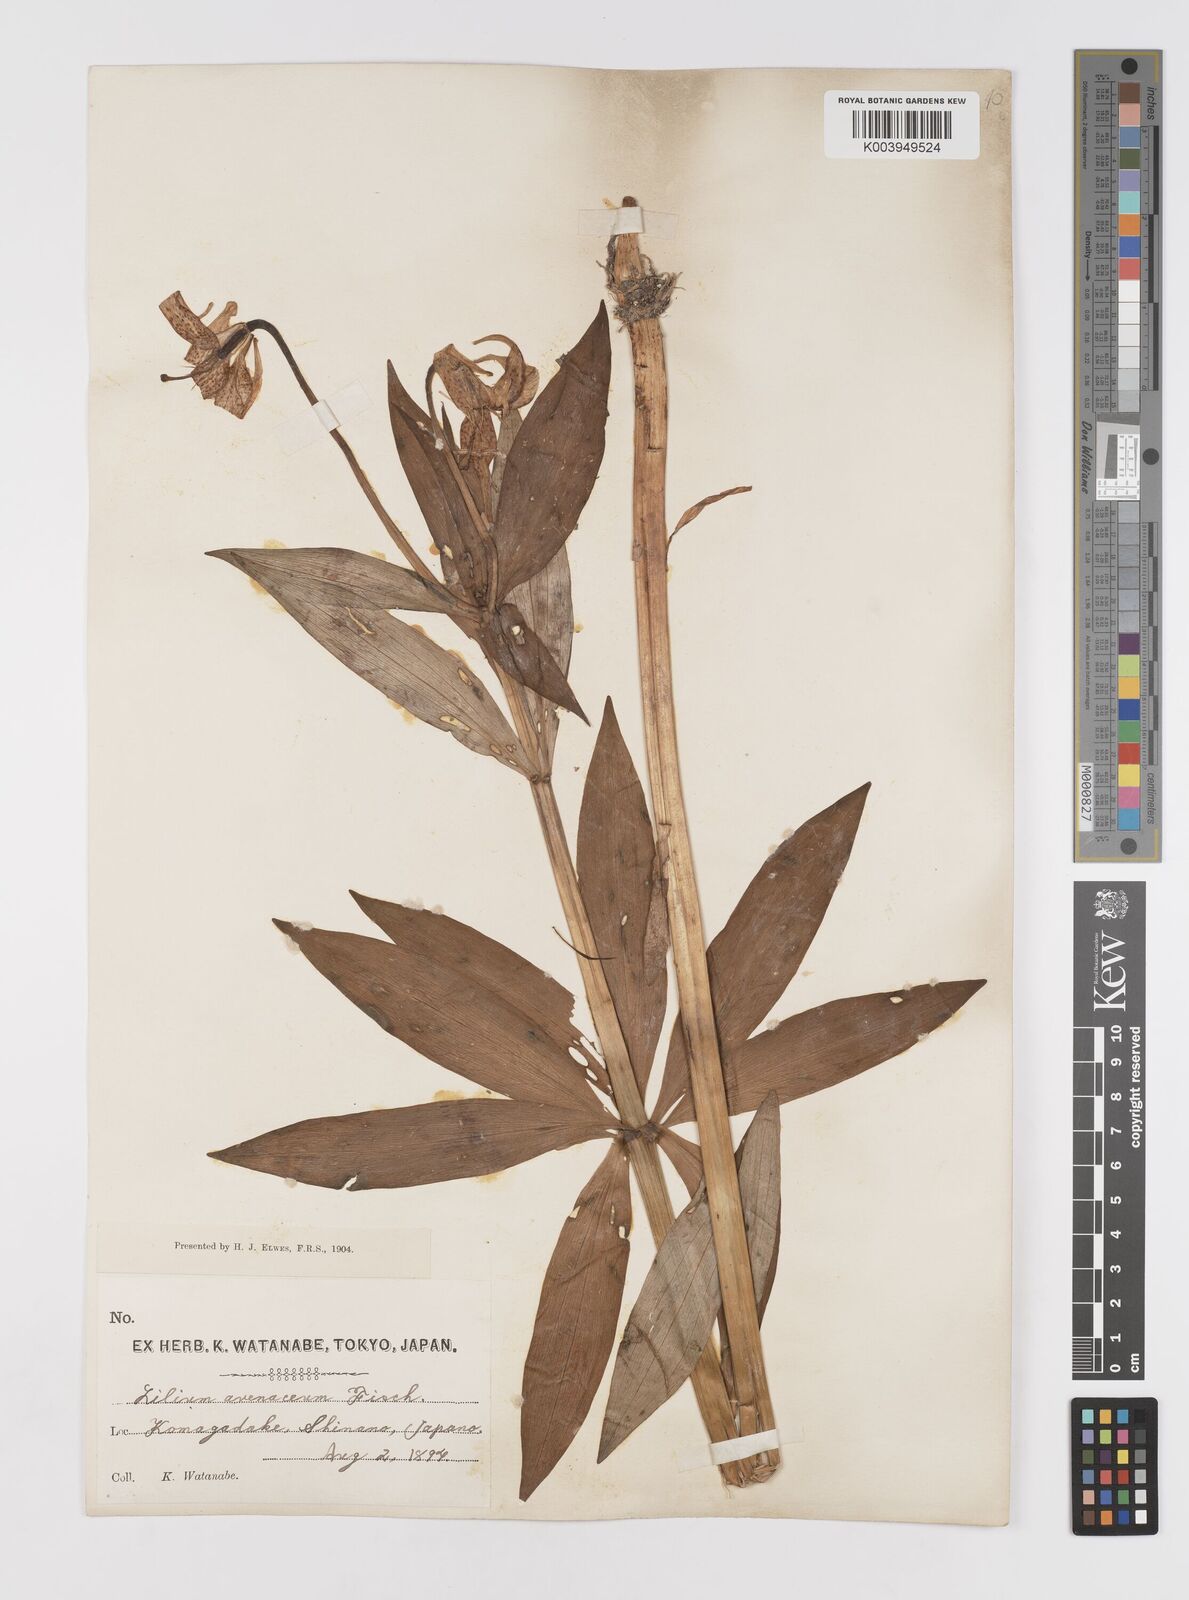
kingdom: Plantae
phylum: Tracheophyta
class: Liliopsida
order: Liliales
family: Liliaceae
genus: Lilium
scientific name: Lilium medeoloides
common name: Wheel lily
